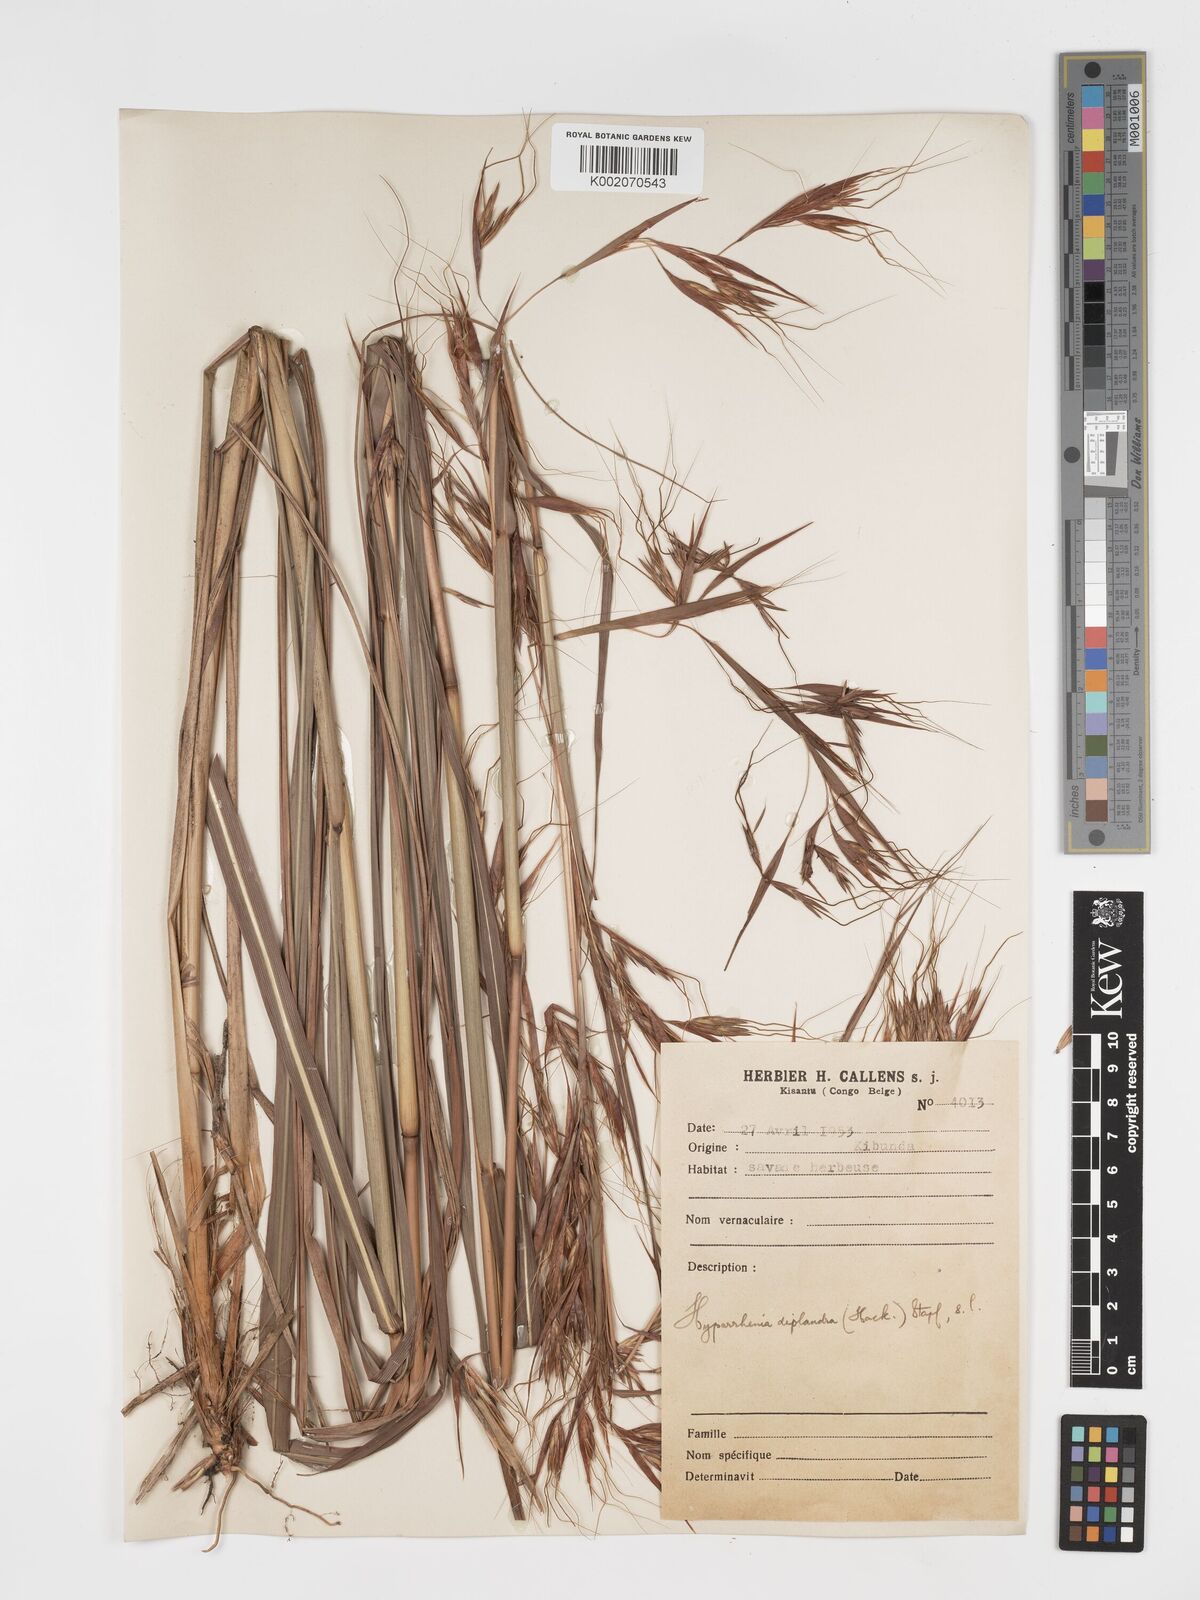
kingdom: Plantae
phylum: Tracheophyta
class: Liliopsida
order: Poales
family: Poaceae
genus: Hyparrhenia
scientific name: Hyparrhenia diplandra
